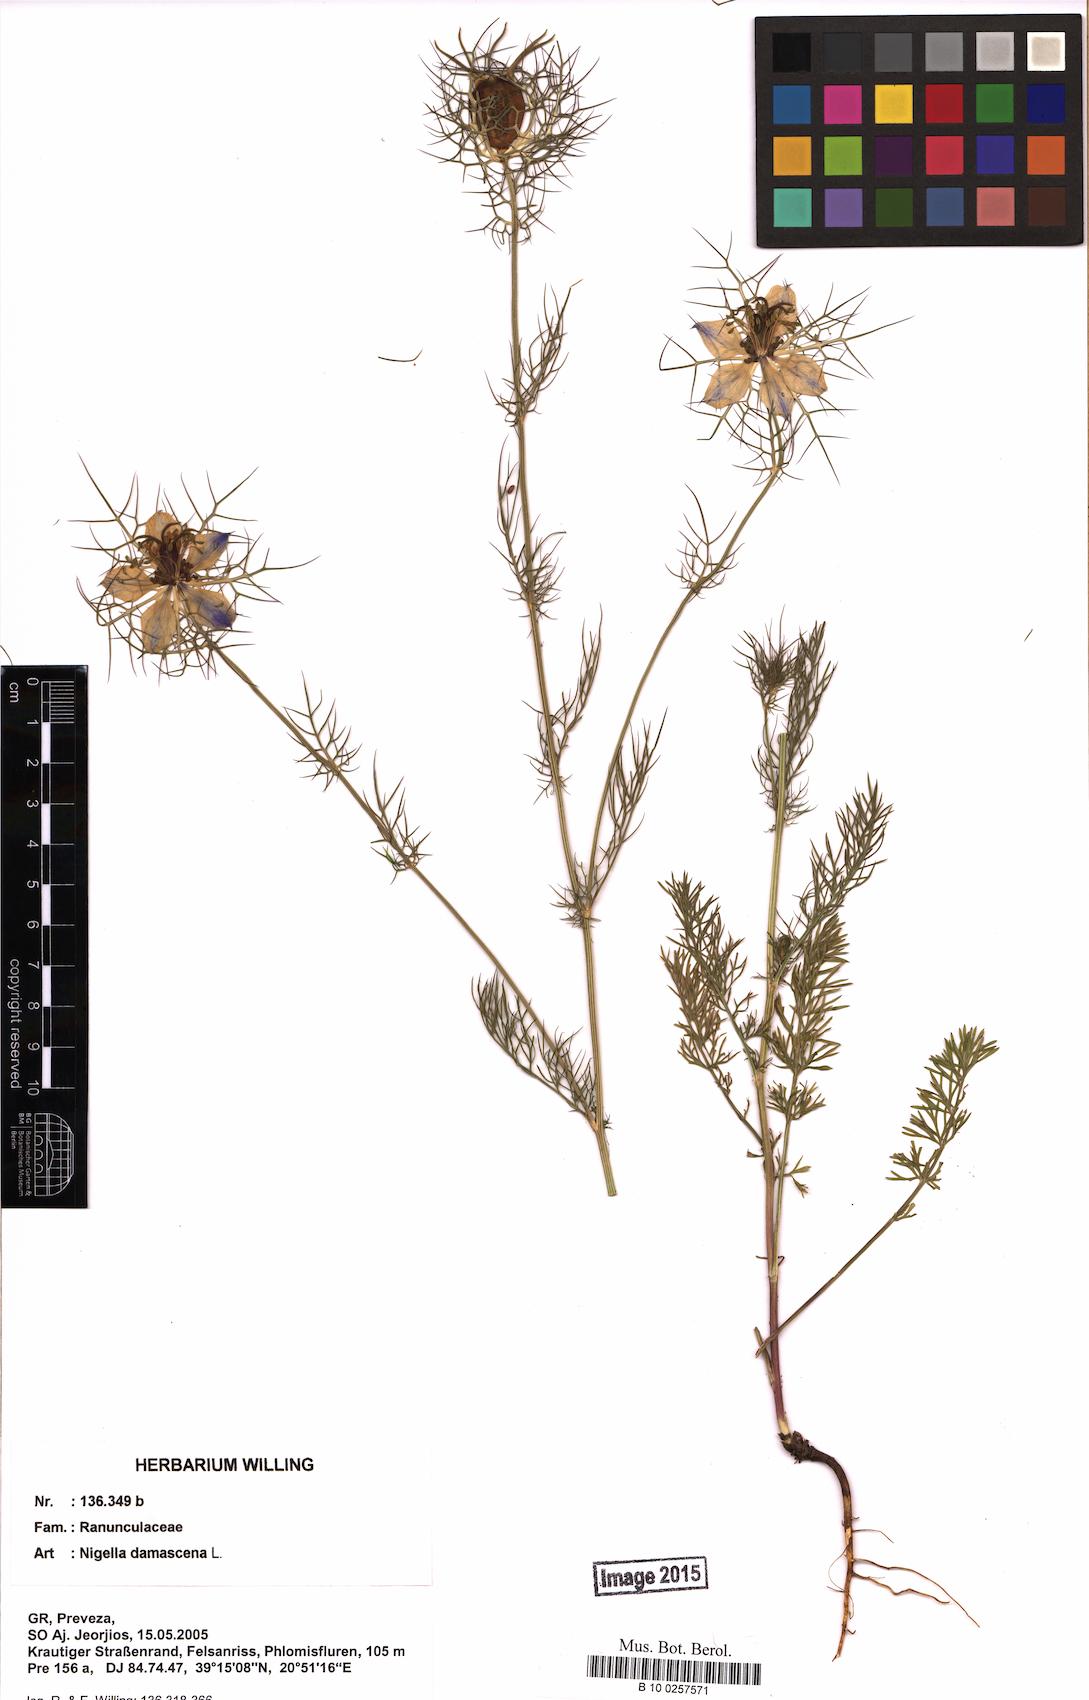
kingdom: Plantae
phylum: Tracheophyta
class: Magnoliopsida
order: Ranunculales
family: Ranunculaceae
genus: Nigella
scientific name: Nigella damascena
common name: Love-in-a-mist
